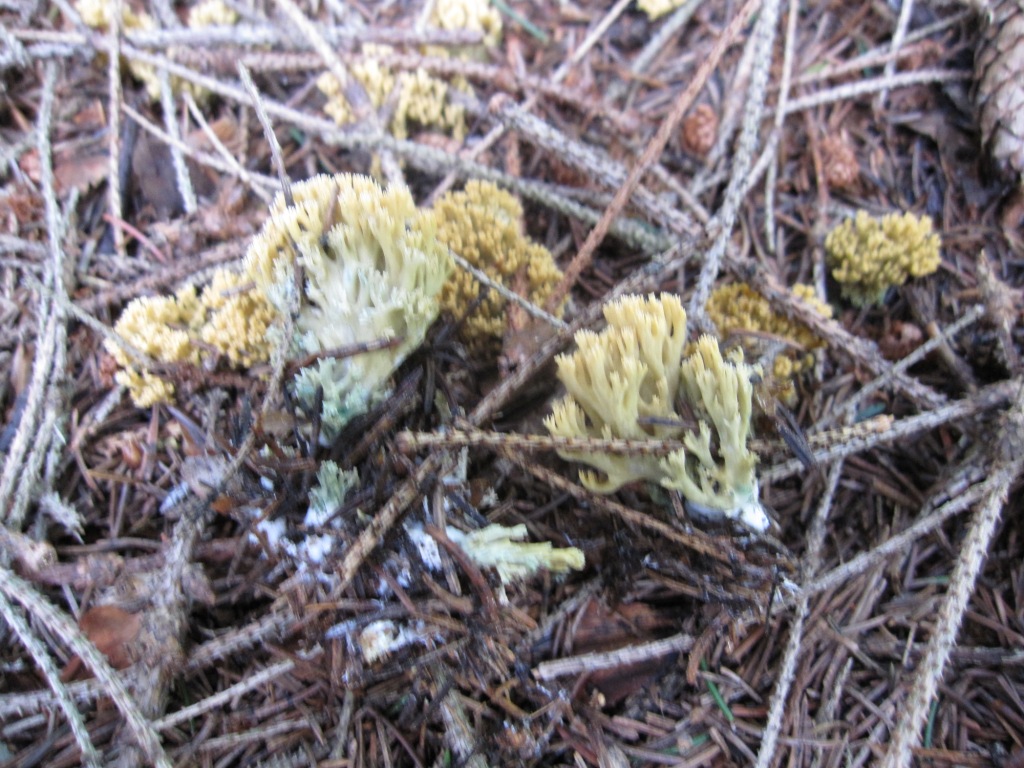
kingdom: Fungi
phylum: Basidiomycota
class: Agaricomycetes
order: Gomphales
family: Gomphaceae
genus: Phaeoclavulina
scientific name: Phaeoclavulina abietina
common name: gulgrøn koralsvamp
